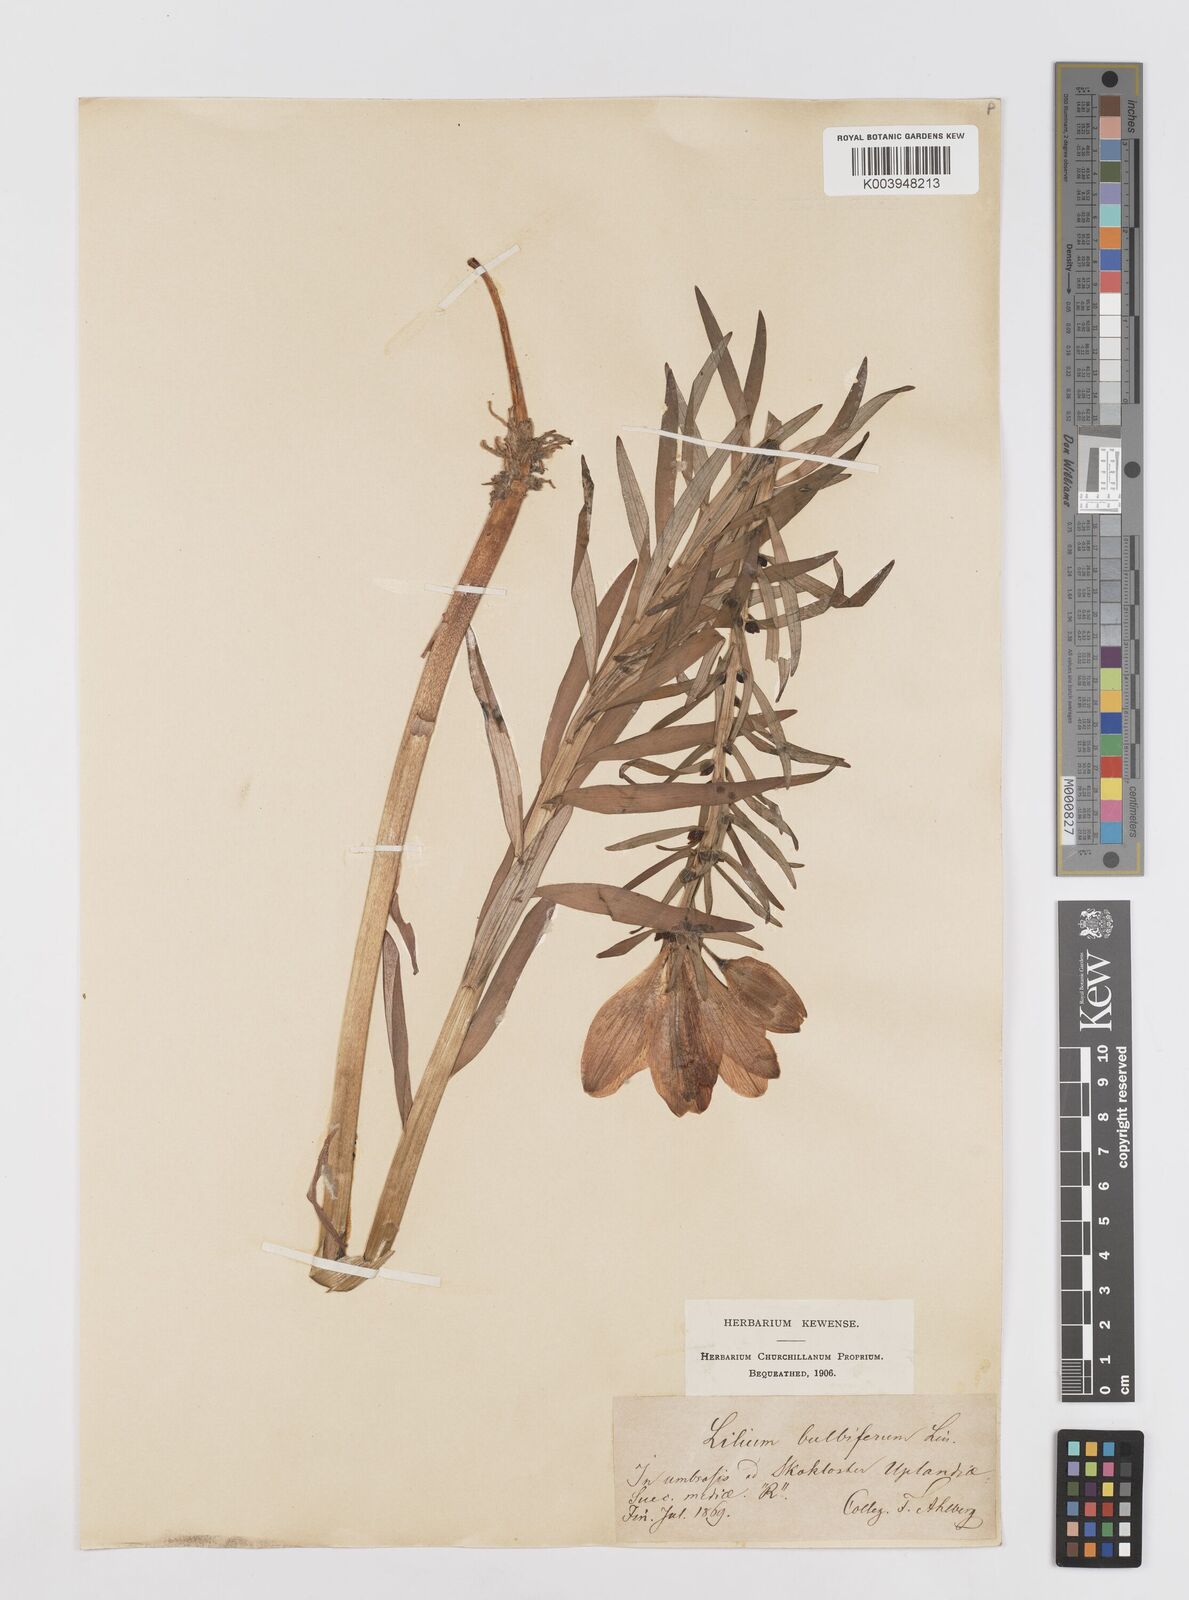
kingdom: Plantae
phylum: Tracheophyta
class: Liliopsida
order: Liliales
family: Liliaceae
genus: Lilium
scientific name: Lilium bulbiferum
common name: Orange lily
